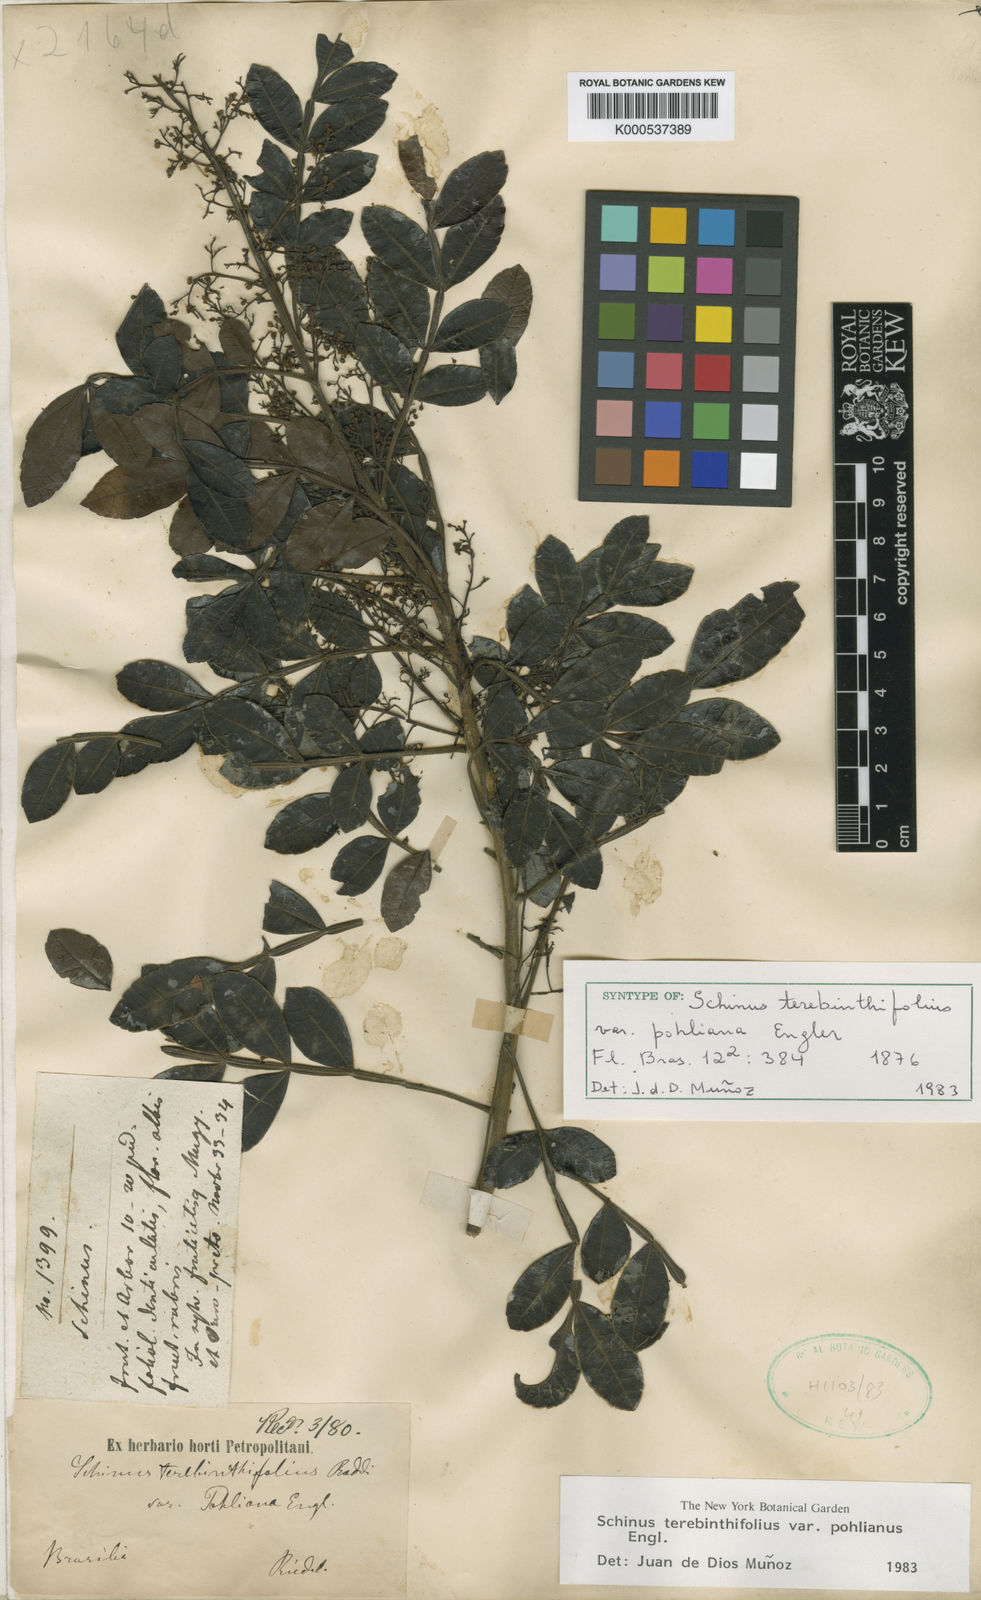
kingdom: Plantae
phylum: Tracheophyta
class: Magnoliopsida
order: Sapindales
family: Anacardiaceae
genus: Schinus
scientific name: Schinus terebinthifolia
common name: Brazilian peppertree
